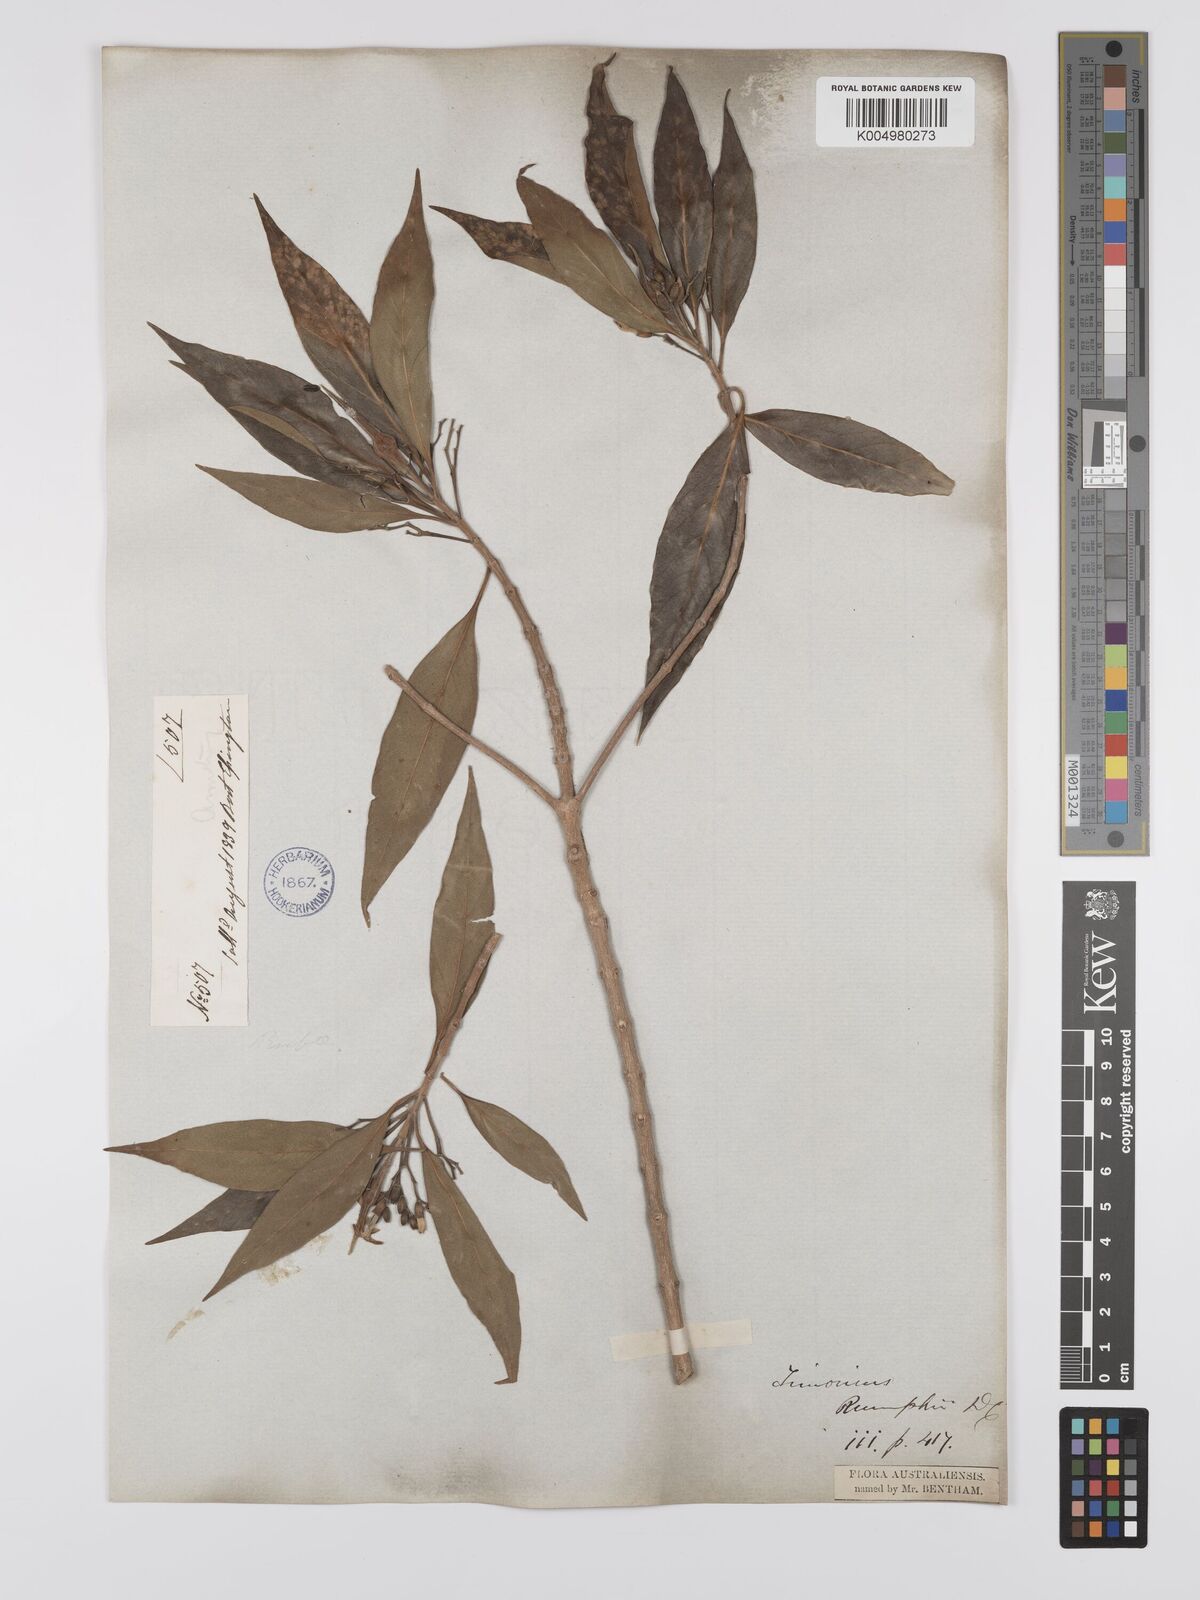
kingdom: Plantae
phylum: Tracheophyta
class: Magnoliopsida
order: Gentianales
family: Rubiaceae
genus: Timonius
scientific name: Timonius timon
